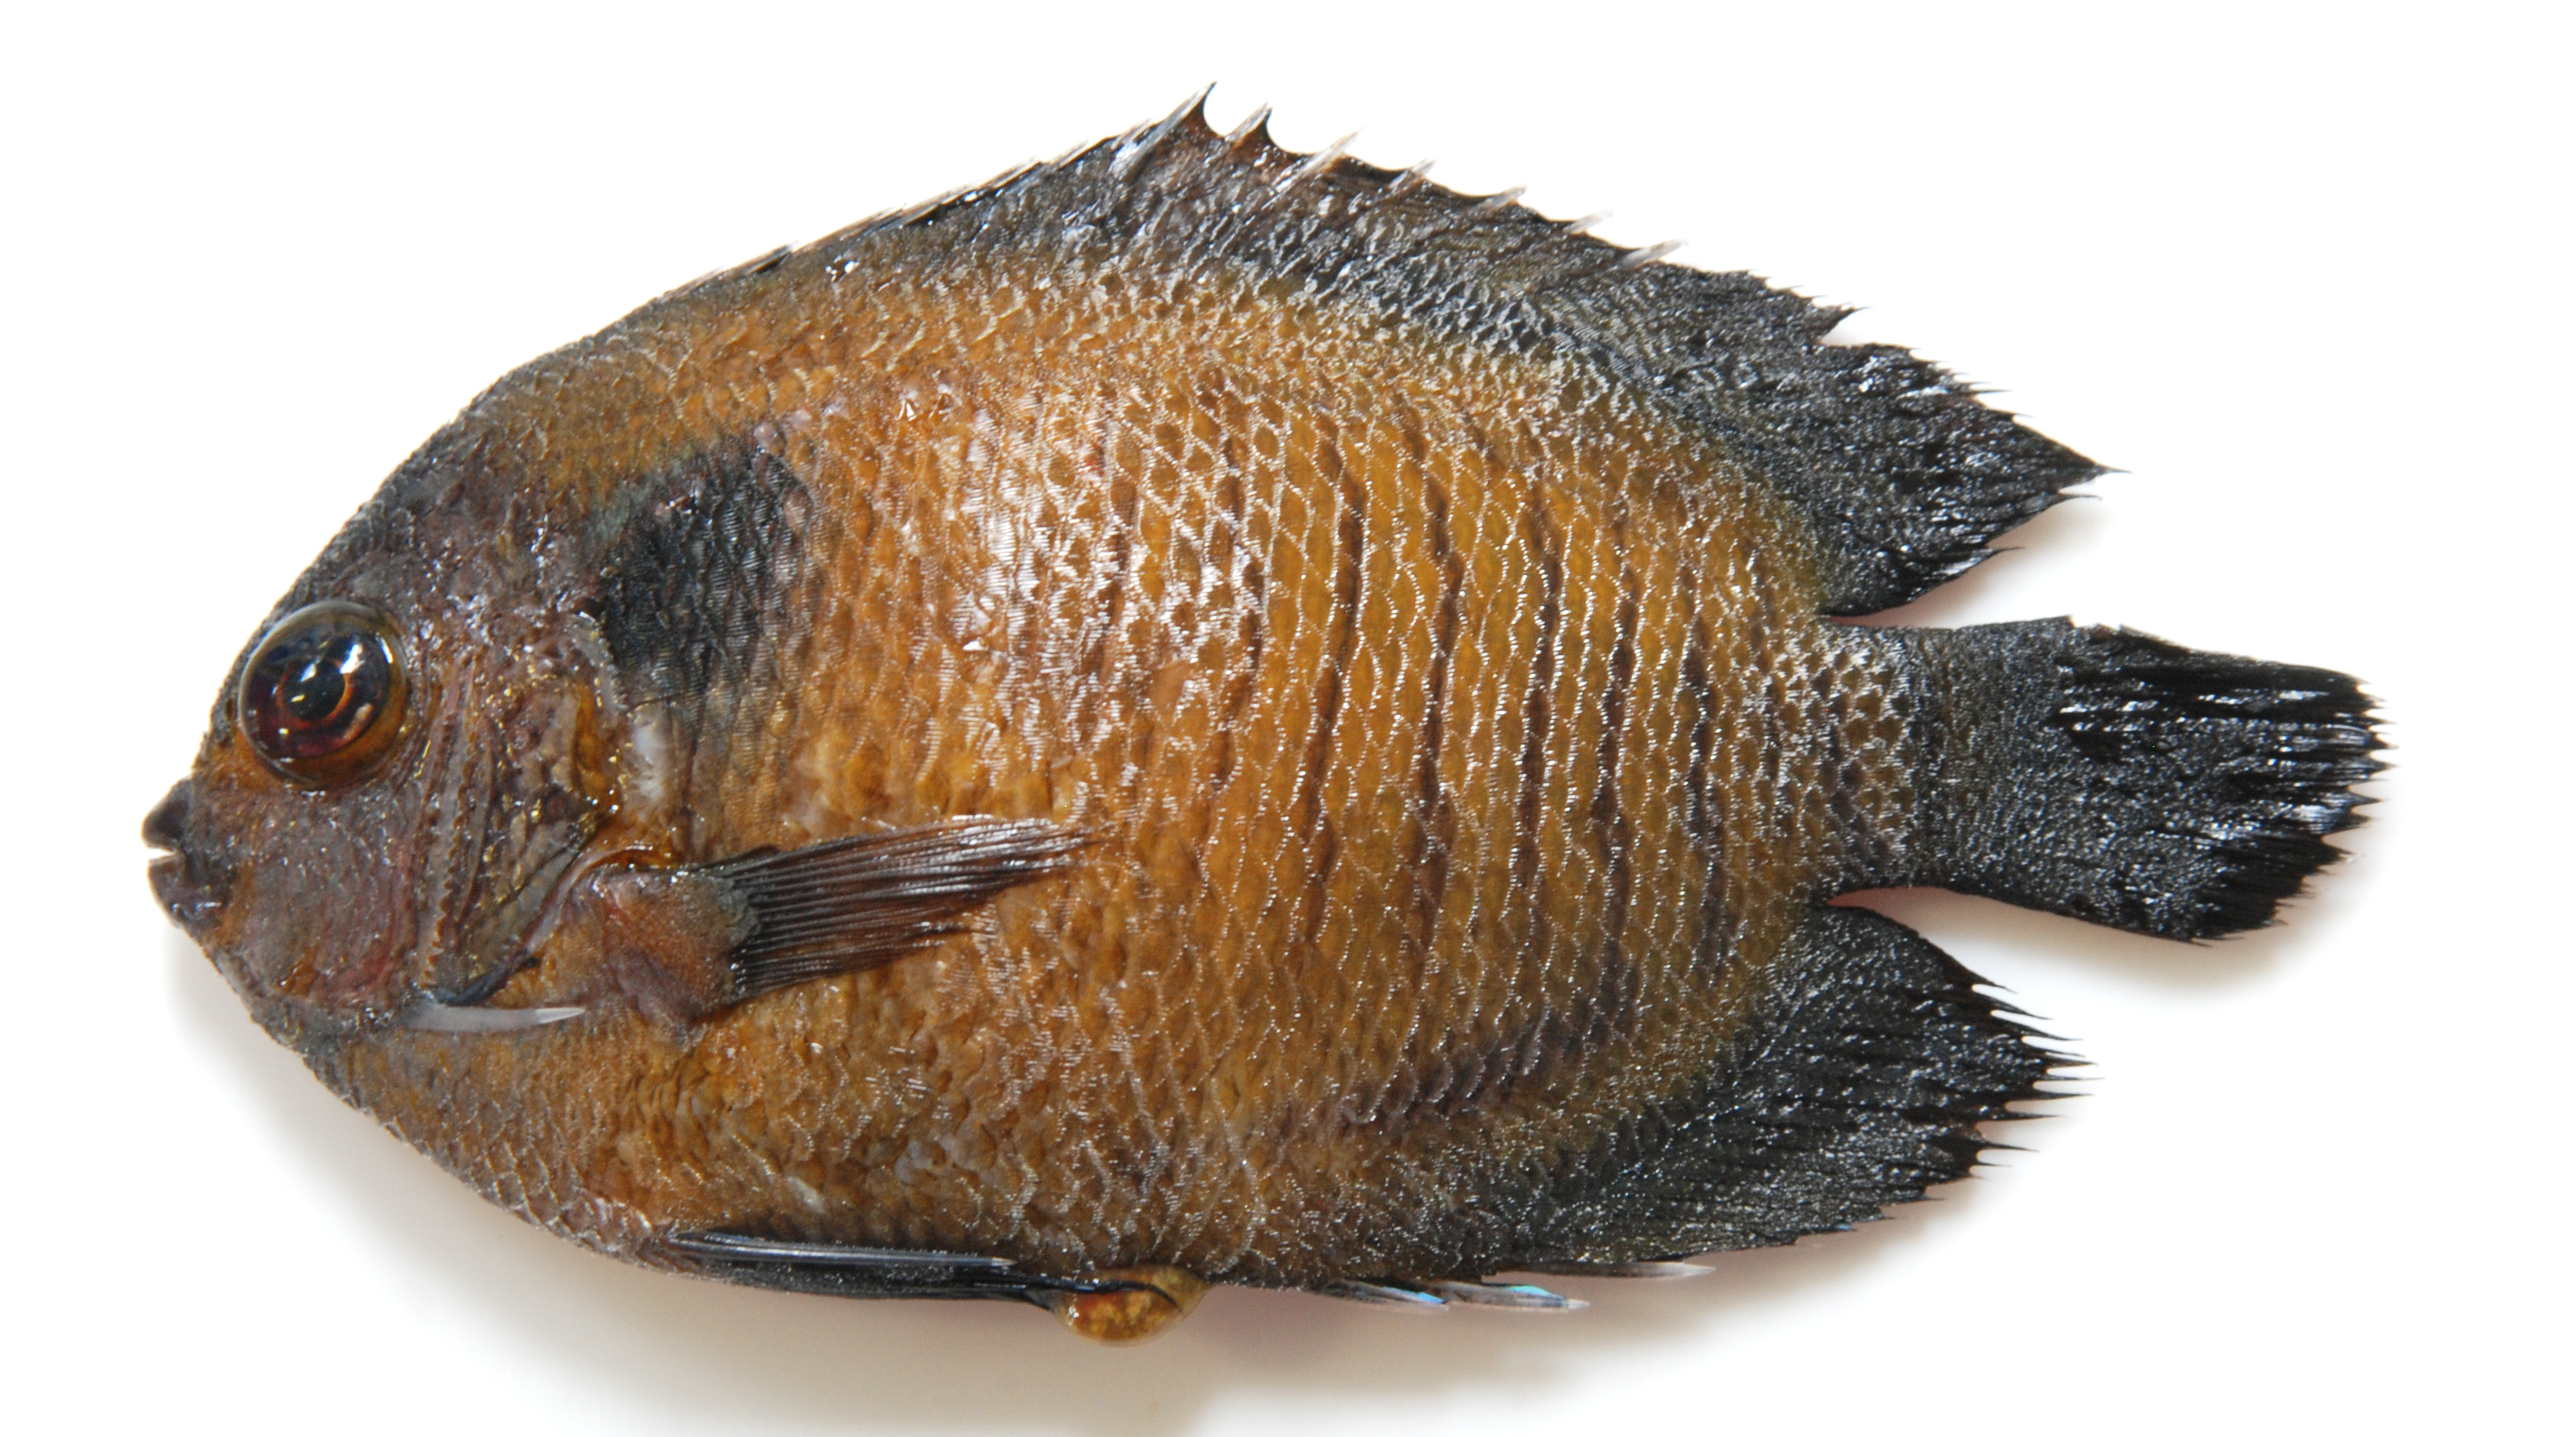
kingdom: Animalia
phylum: Chordata
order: Perciformes
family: Pomacanthidae
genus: Centropyge
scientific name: Centropyge multispinis
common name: Many-spined angelfish
